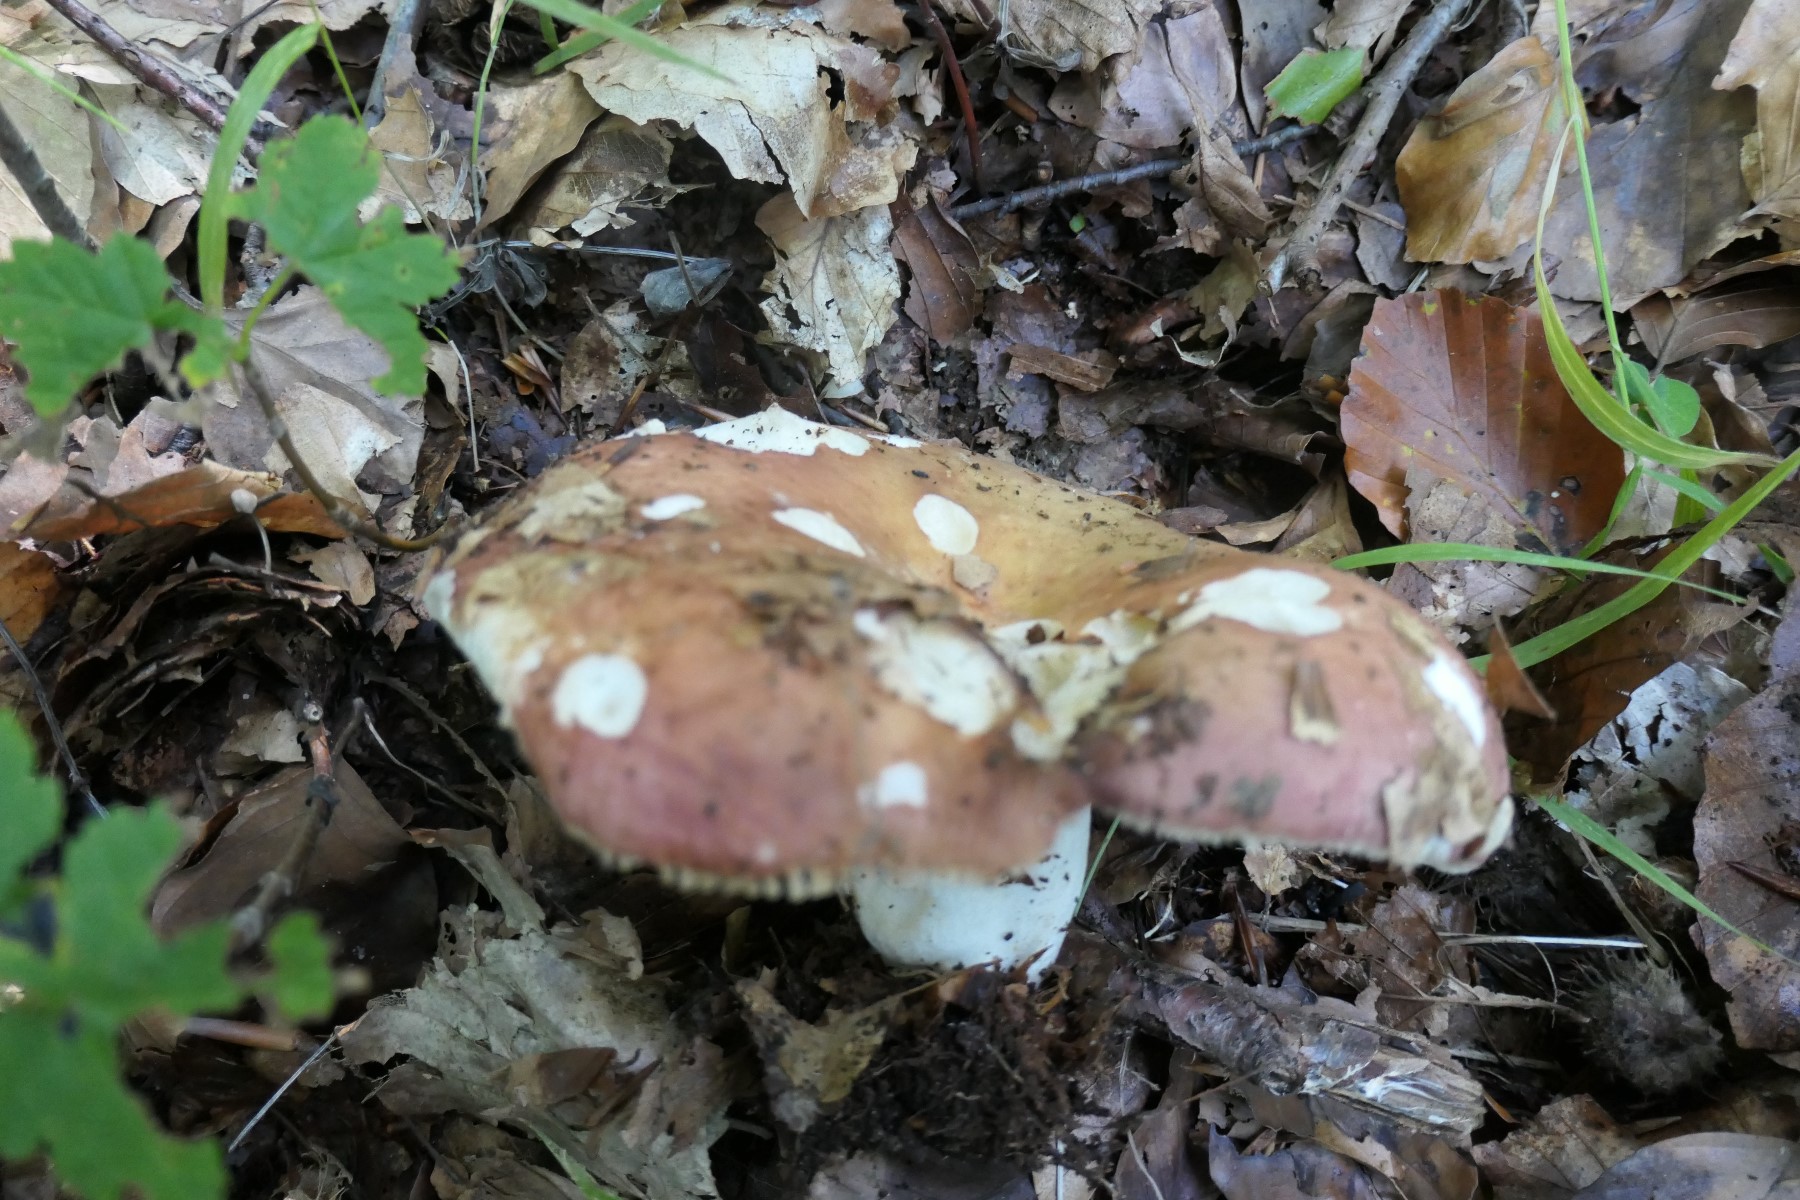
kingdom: Fungi
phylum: Basidiomycota
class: Agaricomycetes
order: Russulales
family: Russulaceae
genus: Russula
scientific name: Russula curtipes
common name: kortstokket skørhat
